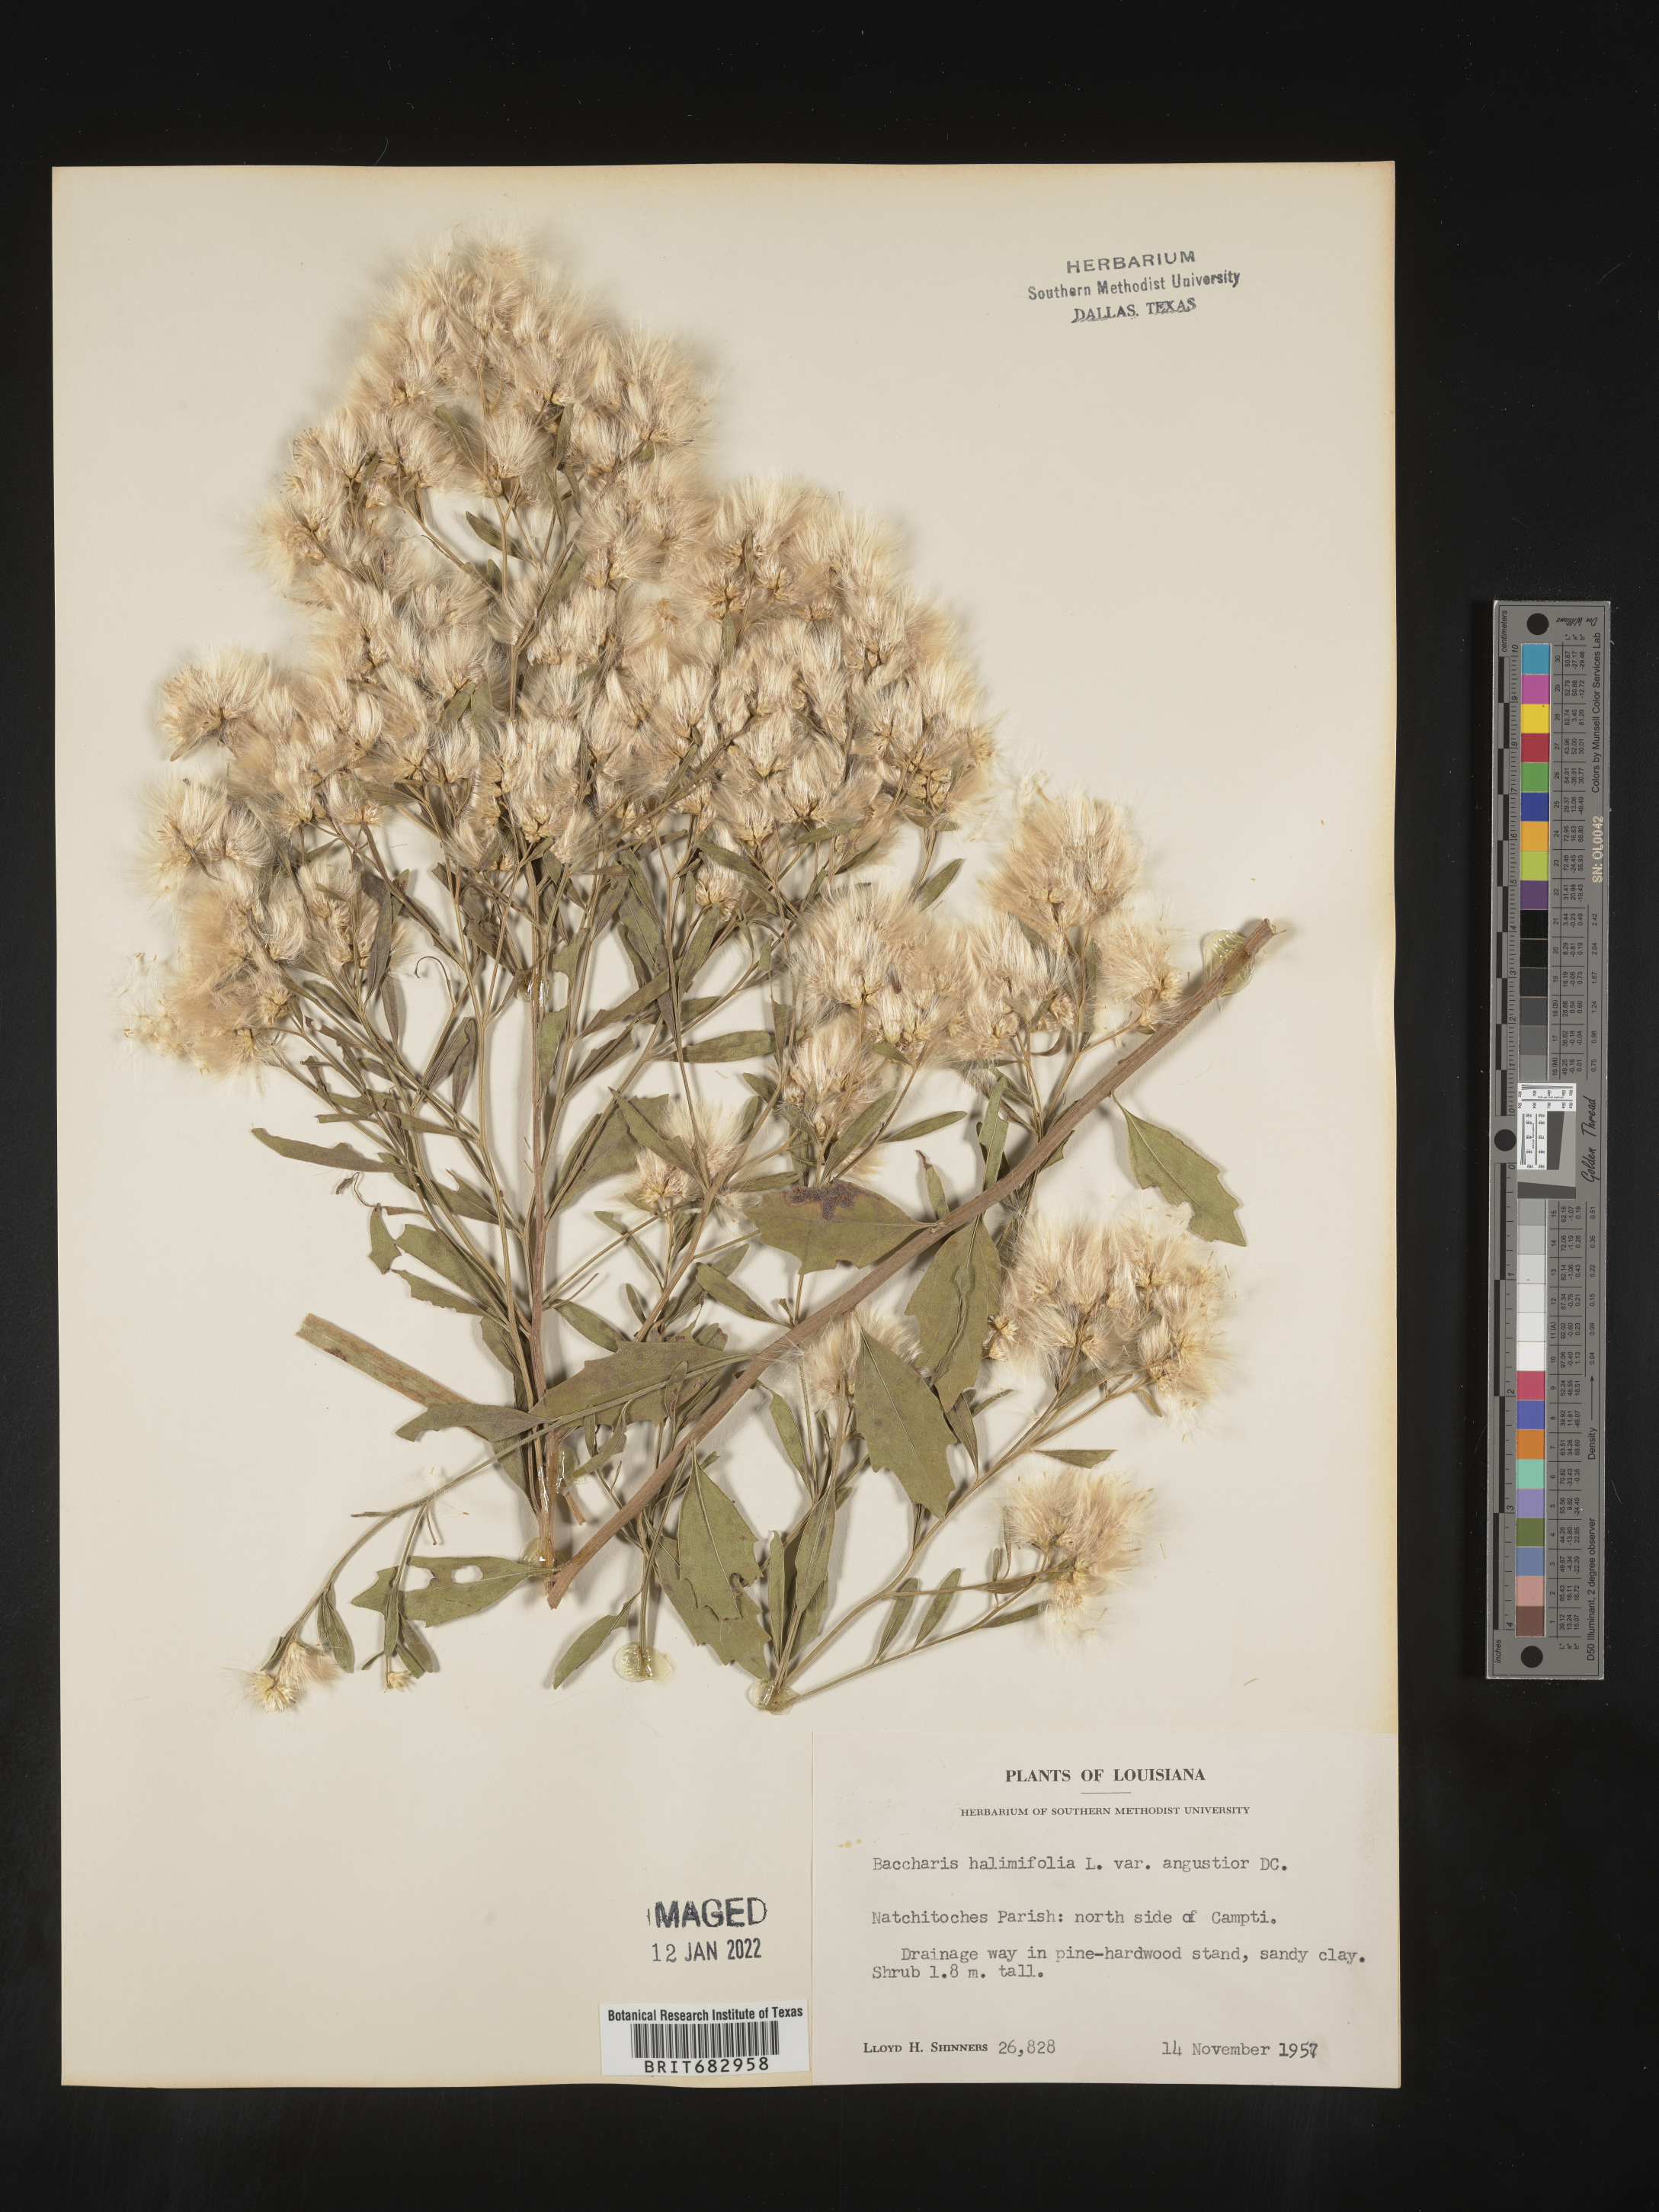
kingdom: Plantae
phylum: Tracheophyta
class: Magnoliopsida
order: Asterales
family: Asteraceae
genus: Nidorella
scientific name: Nidorella ivifolia
